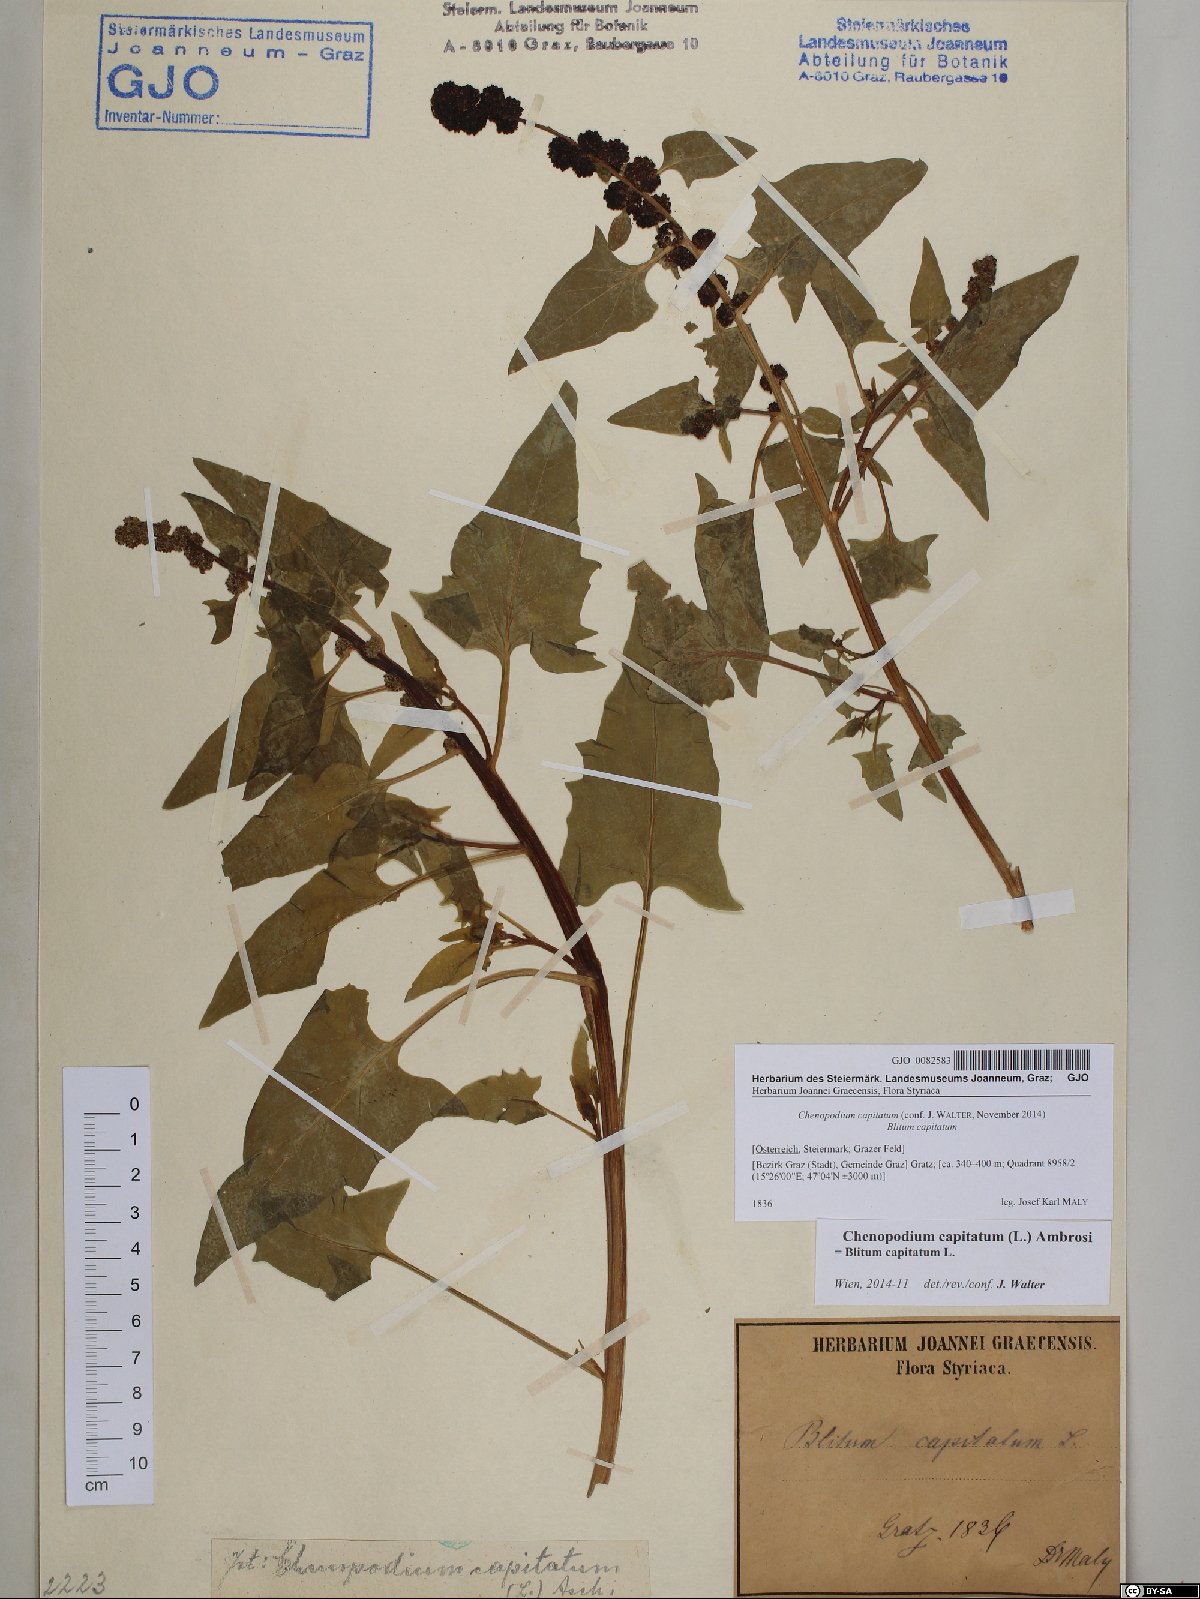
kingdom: Plantae
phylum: Tracheophyta
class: Magnoliopsida
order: Caryophyllales
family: Amaranthaceae
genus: Blitum
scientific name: Blitum capitatum
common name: Strawberry-blight
